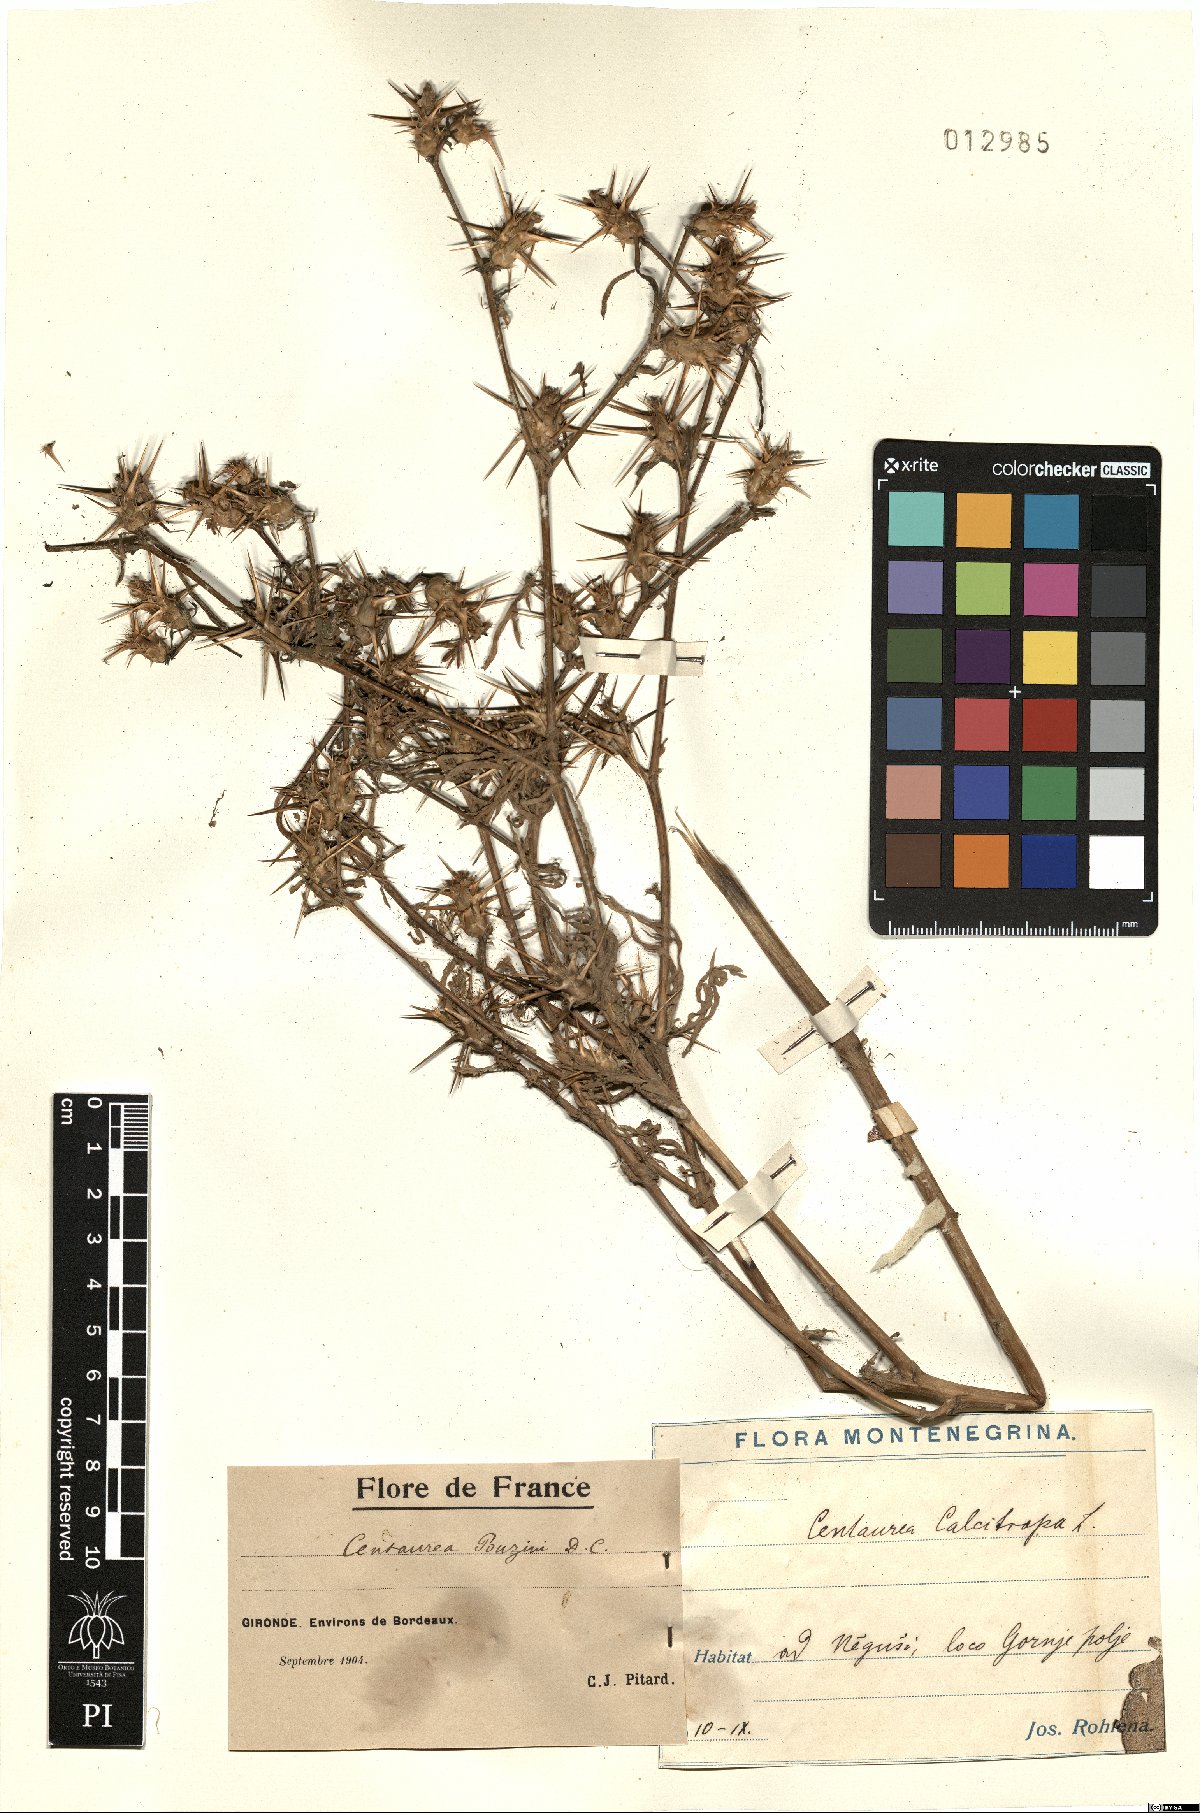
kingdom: Plantae
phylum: Tracheophyta
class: Magnoliopsida
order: Asterales
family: Asteraceae
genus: Centaurea
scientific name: Centaurea calcitrapa
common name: Red star-thistle
